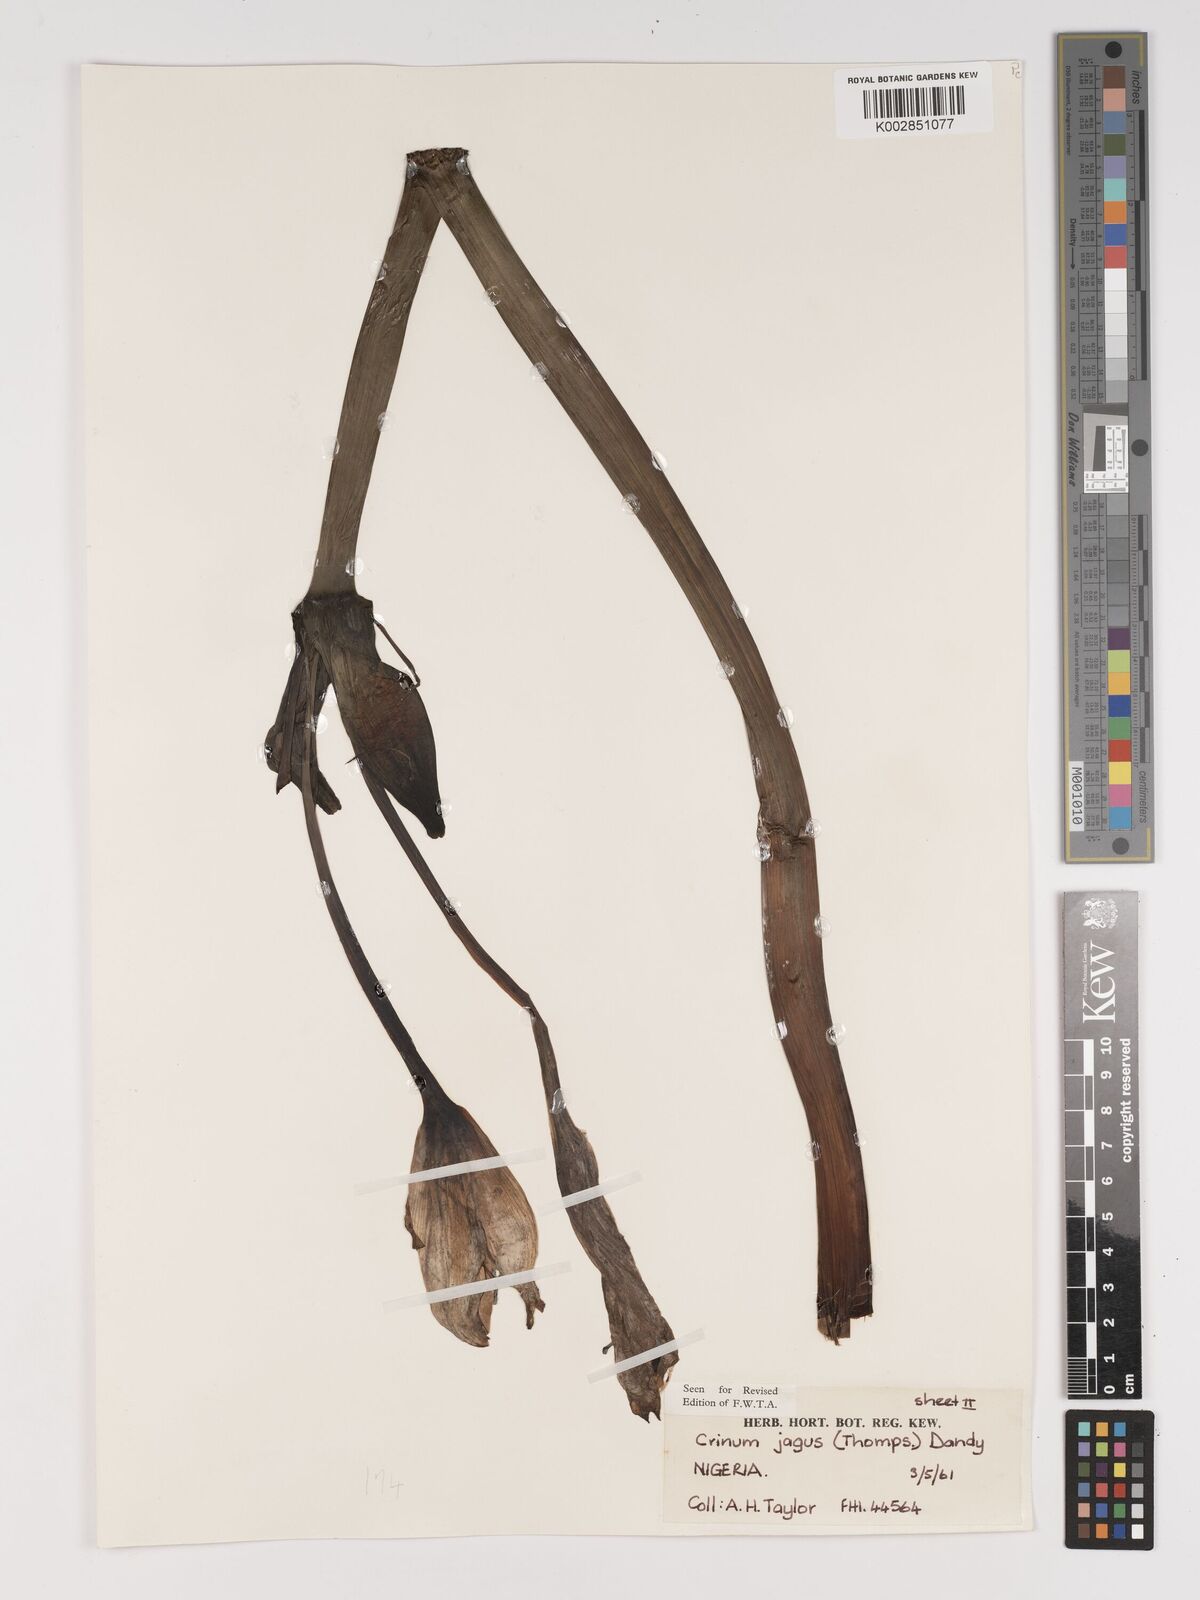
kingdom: Plantae
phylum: Tracheophyta
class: Liliopsida
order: Asparagales
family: Amaryllidaceae
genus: Crinum
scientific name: Crinum jagus
